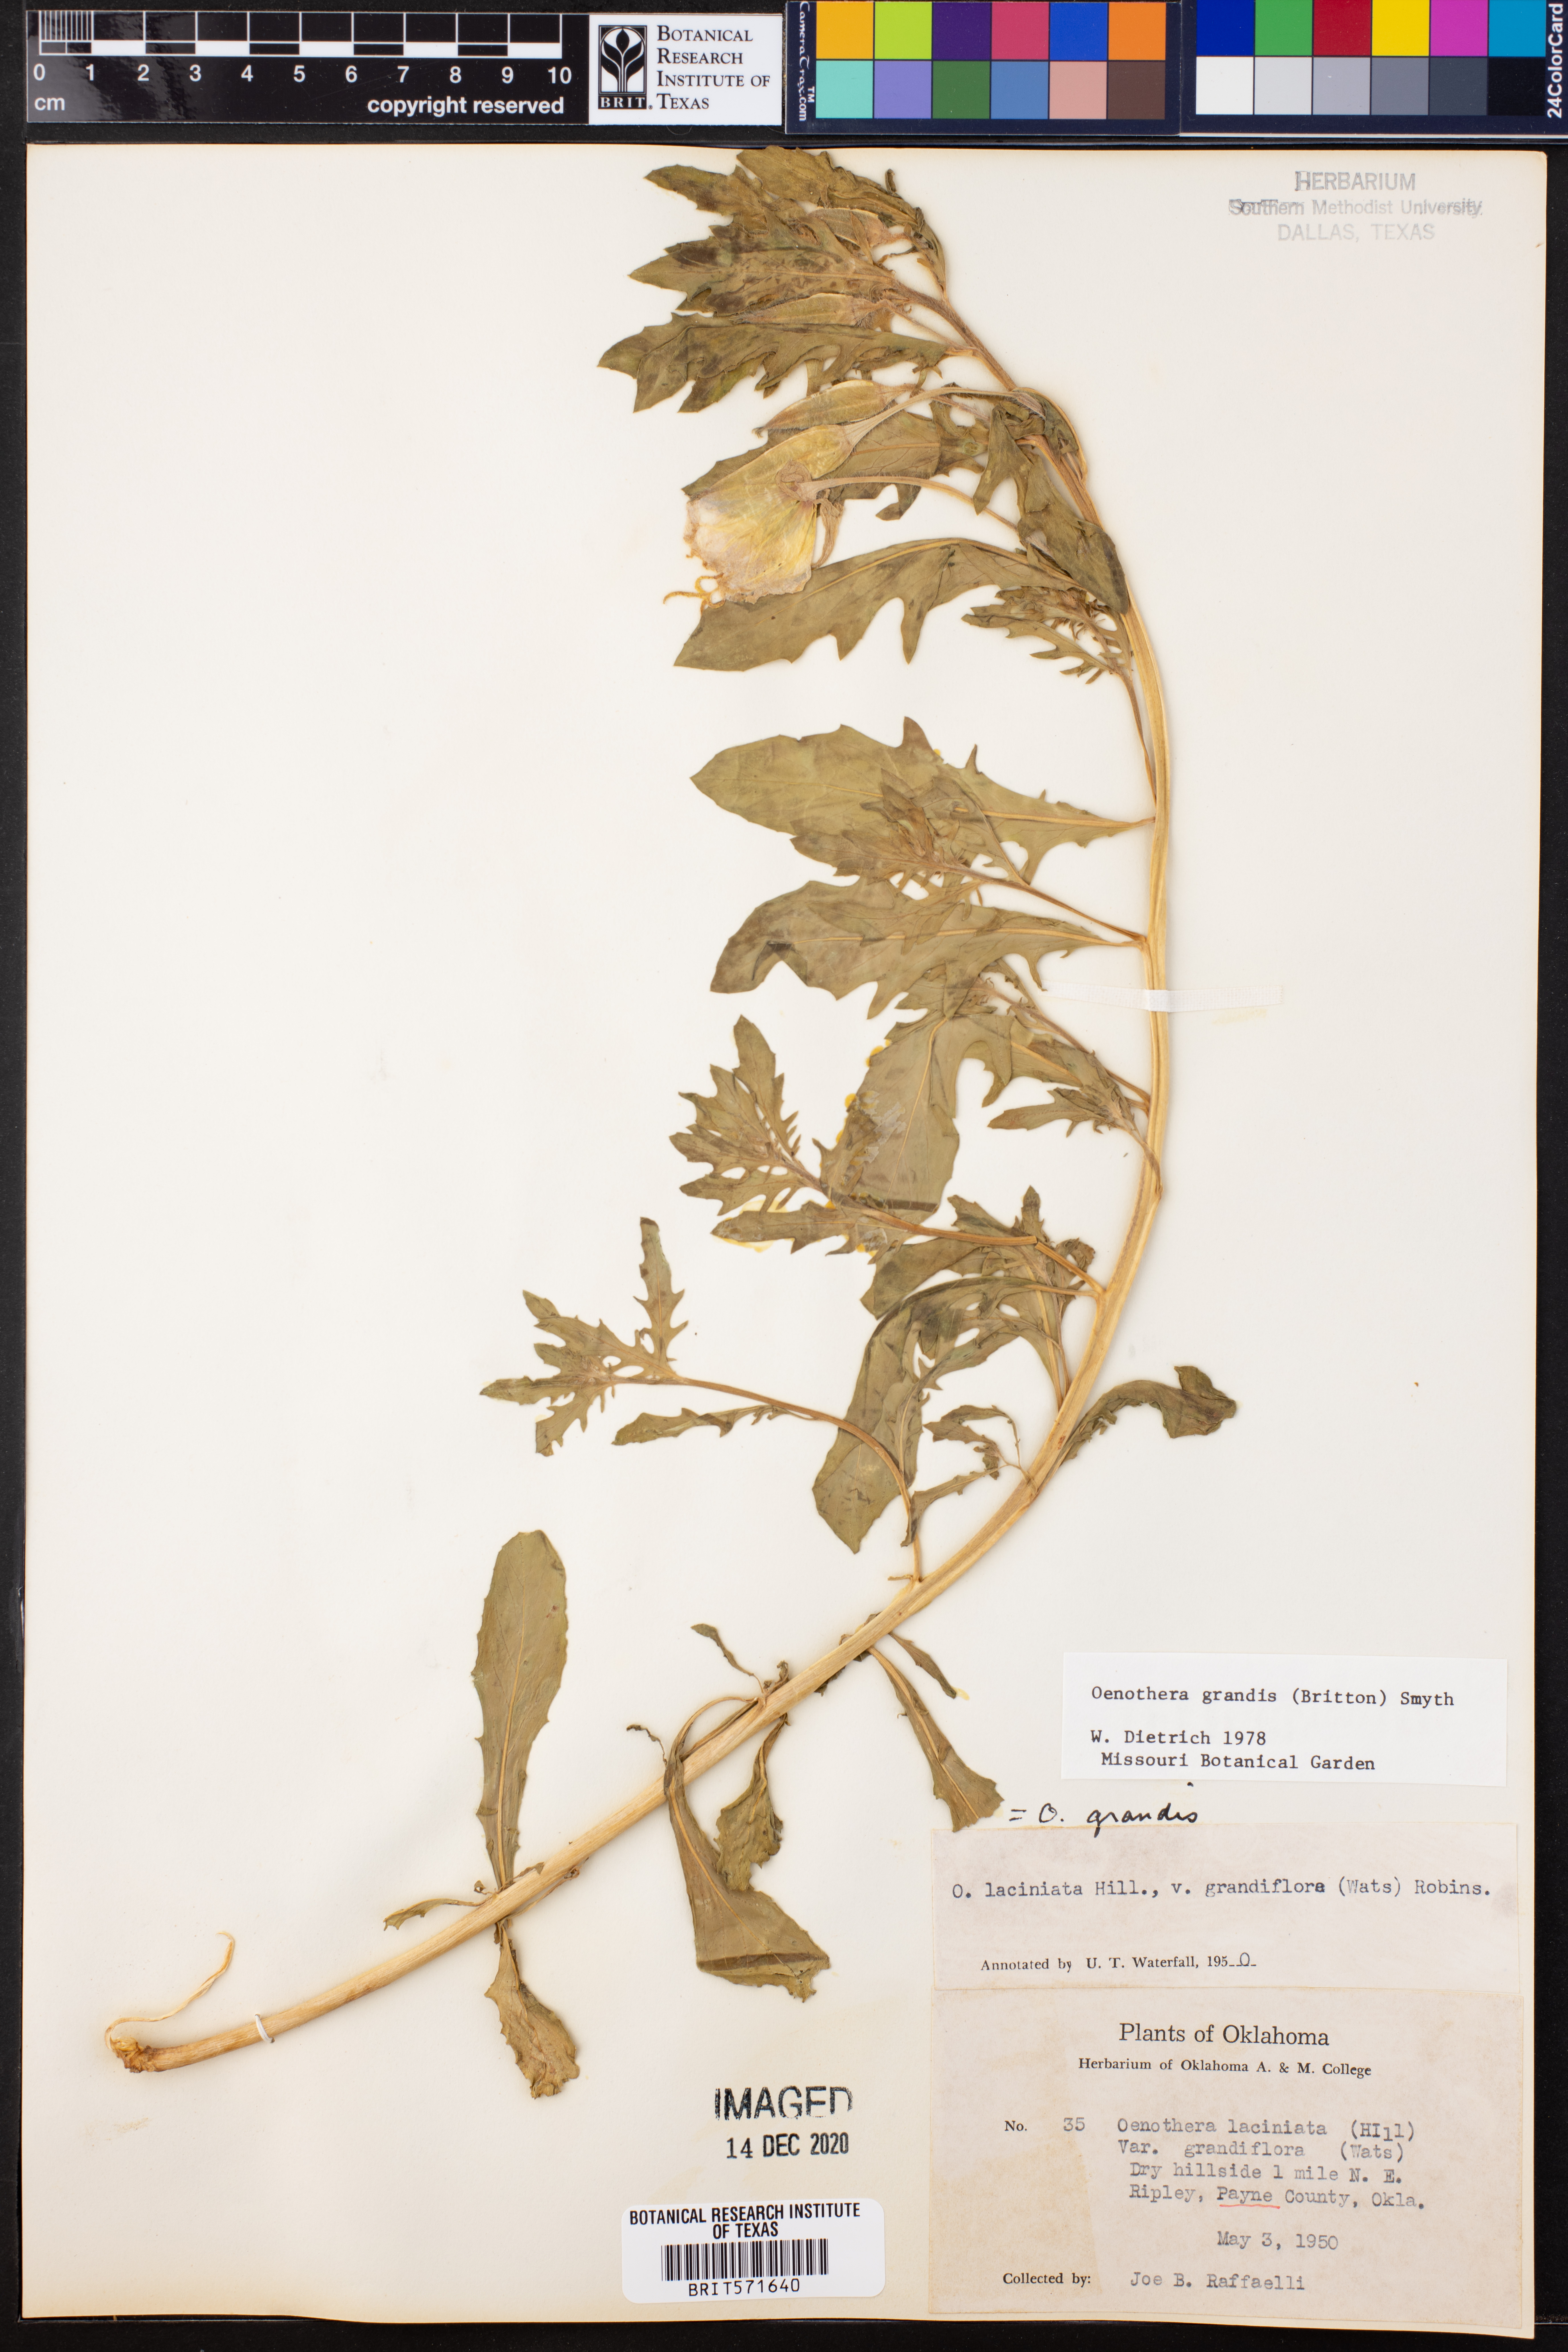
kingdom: Plantae
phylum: Tracheophyta
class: Magnoliopsida
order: Myrtales
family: Onagraceae
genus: Oenothera
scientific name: Oenothera grandis
